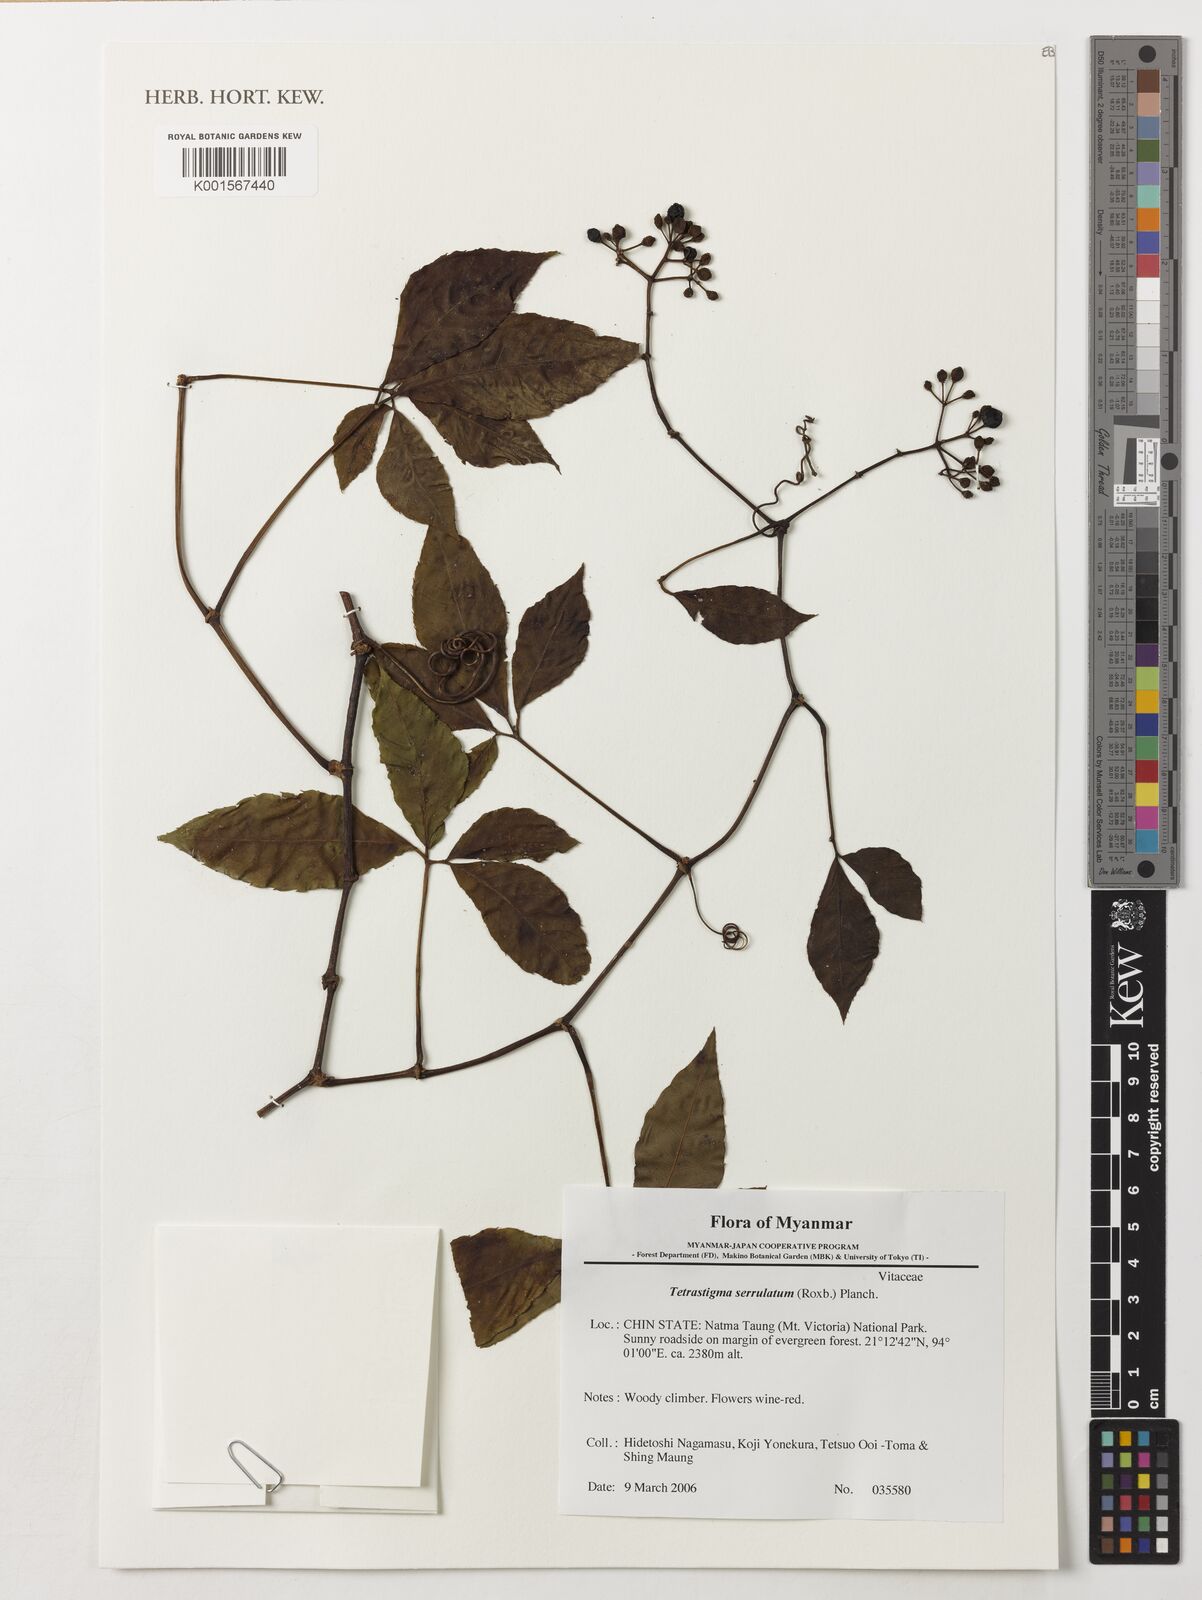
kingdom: Plantae
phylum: Tracheophyta
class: Magnoliopsida
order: Vitales
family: Vitaceae
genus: Tetrastigma
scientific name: Tetrastigma serrulatum
